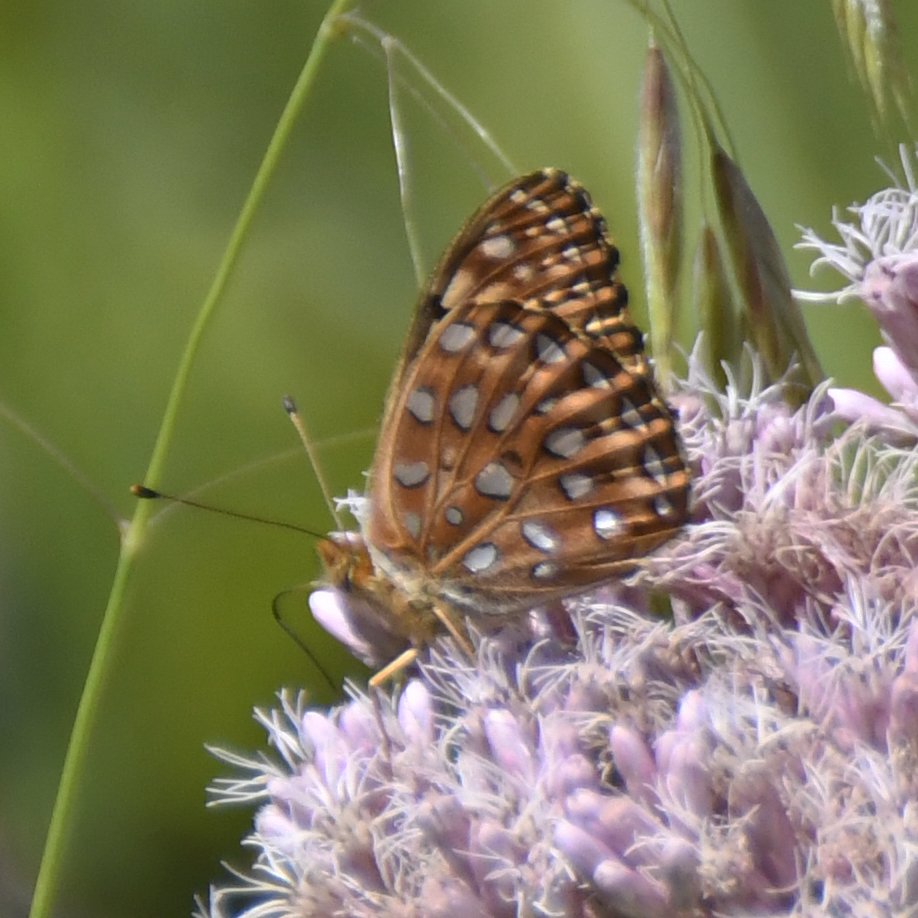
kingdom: Animalia
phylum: Arthropoda
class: Insecta
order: Lepidoptera
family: Nymphalidae
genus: Speyeria
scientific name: Speyeria aphrodite
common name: Aphrodite Fritillary
